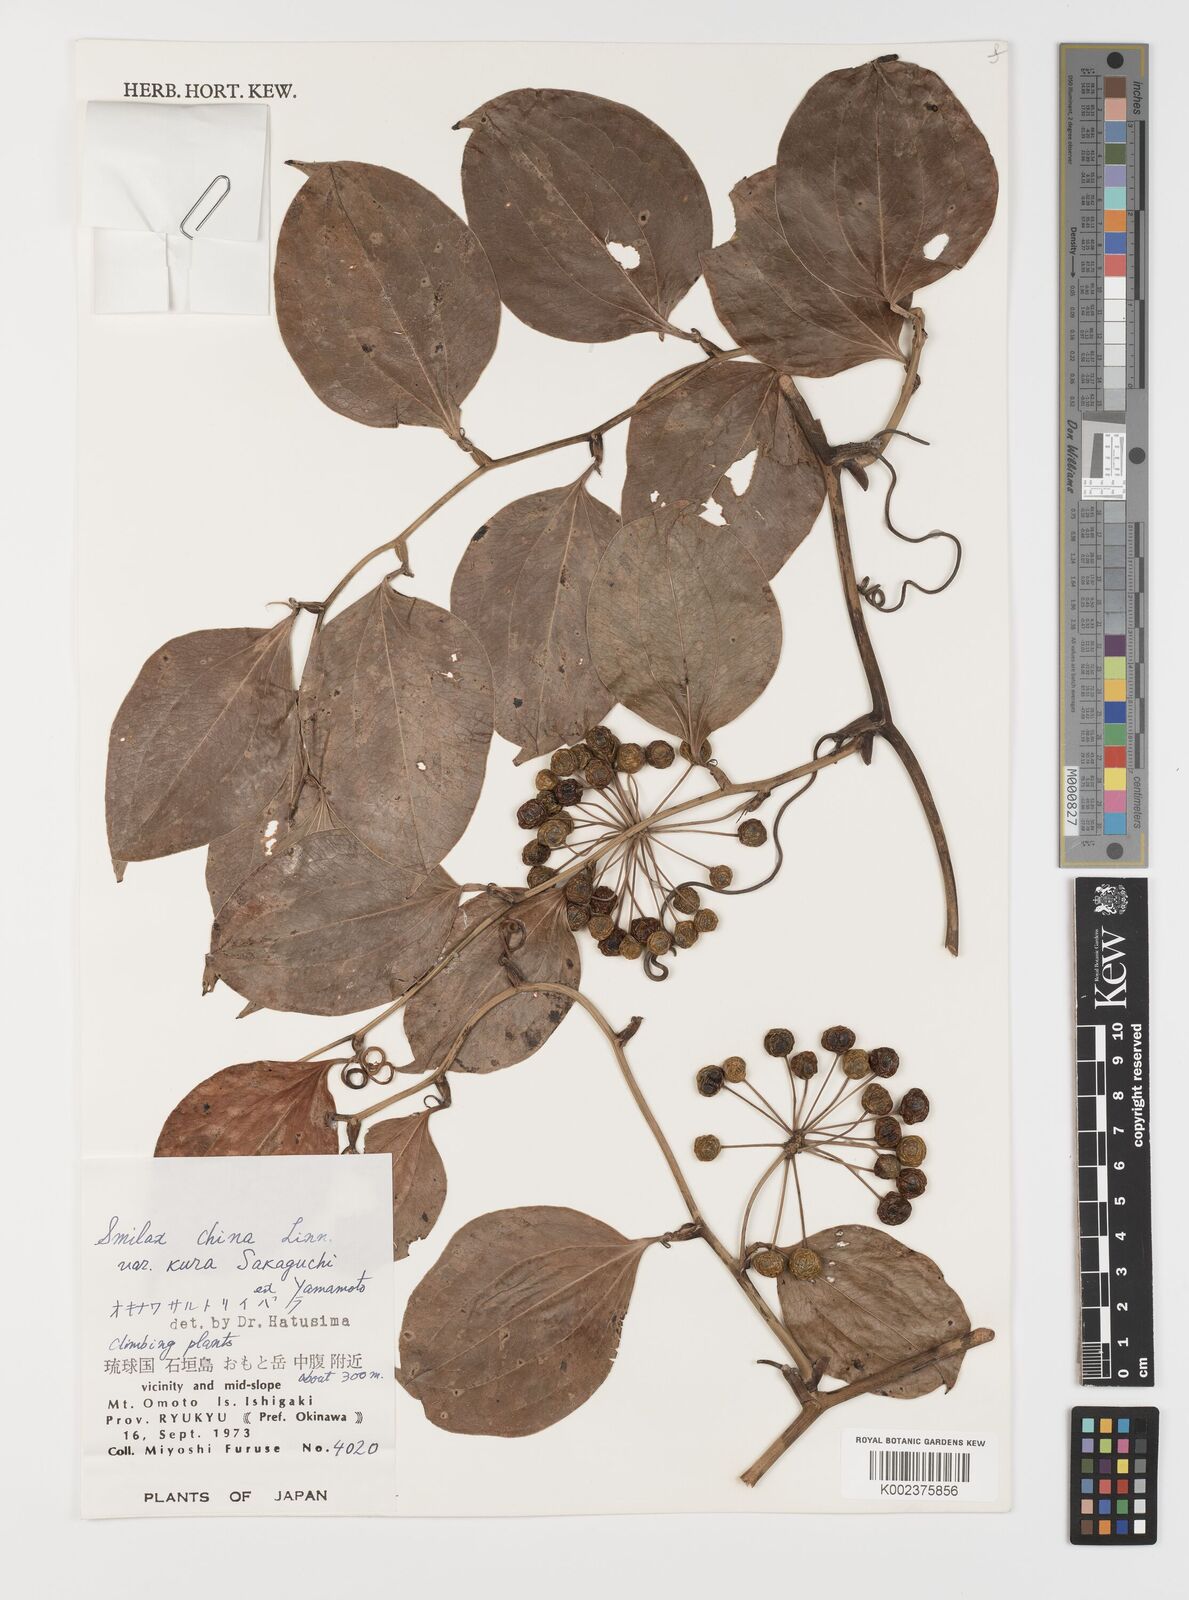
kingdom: Plantae
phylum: Tracheophyta
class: Liliopsida
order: Liliales
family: Smilacaceae
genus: Smilax
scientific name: Smilax china
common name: Chinaroot
